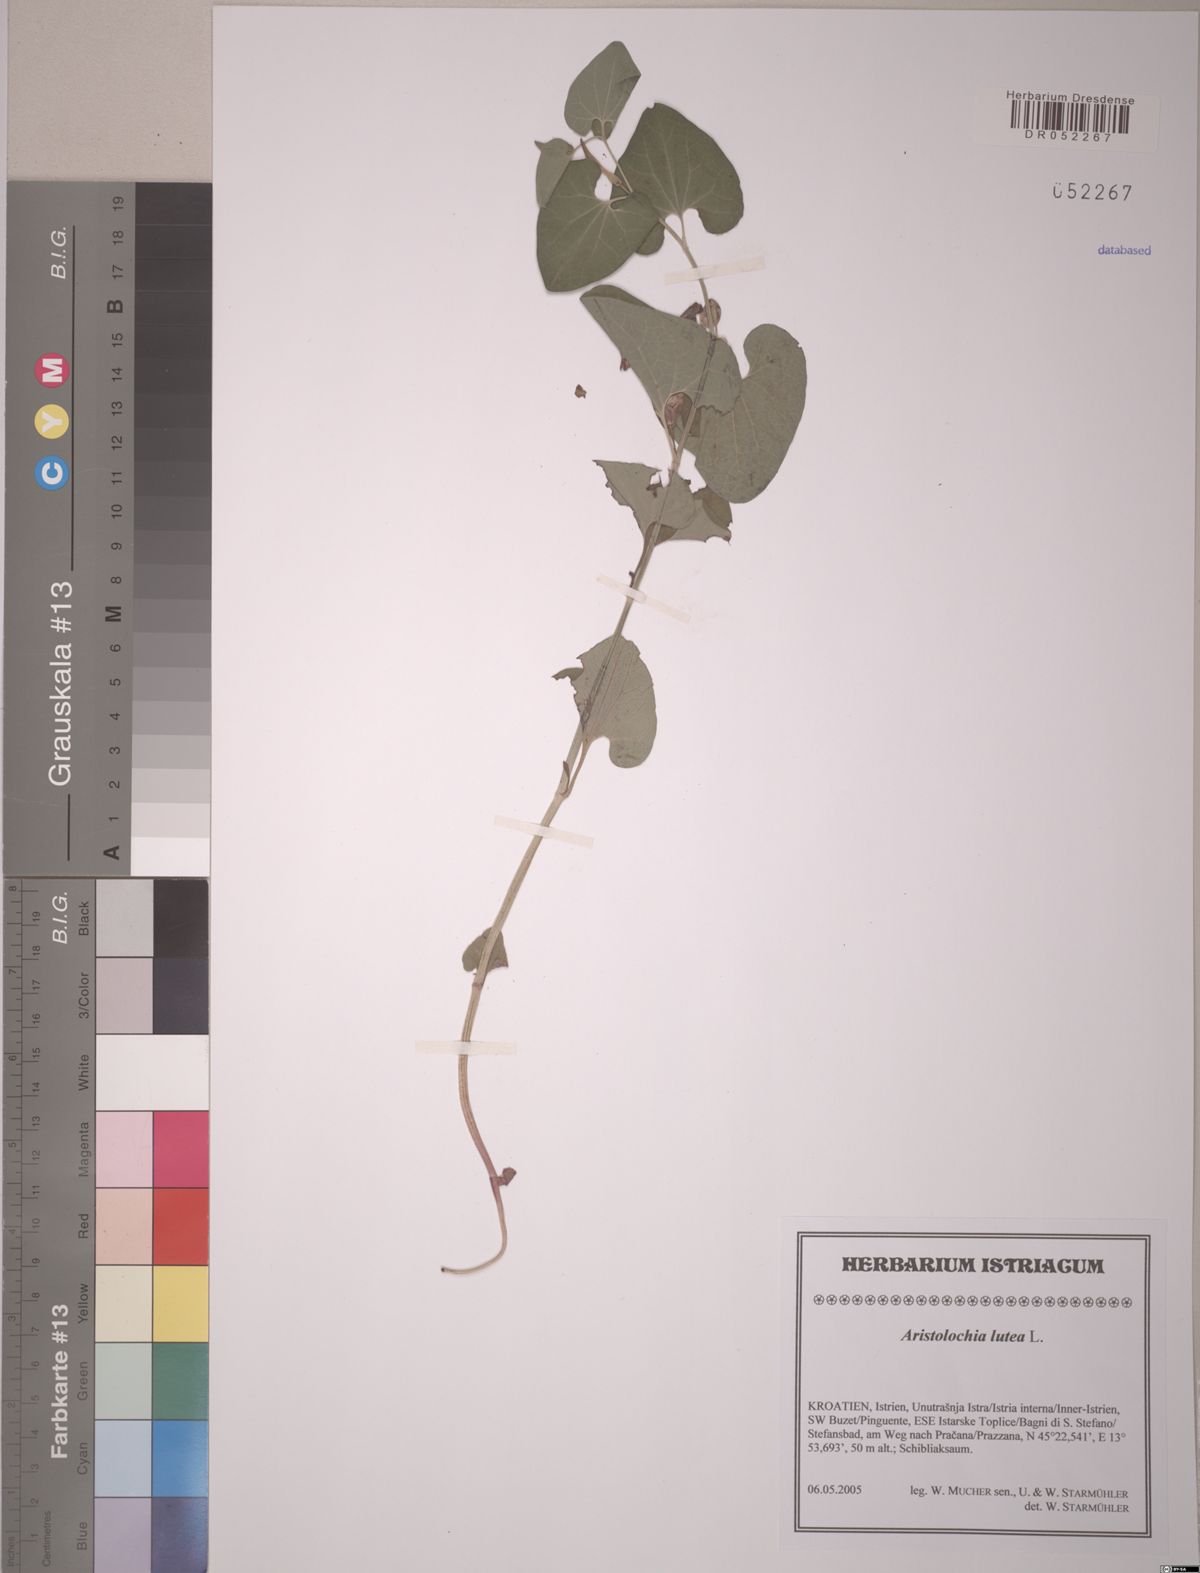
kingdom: Plantae
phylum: Tracheophyta
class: Magnoliopsida
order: Piperales
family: Aristolochiaceae
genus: Aristolochia
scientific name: Aristolochia lutea
